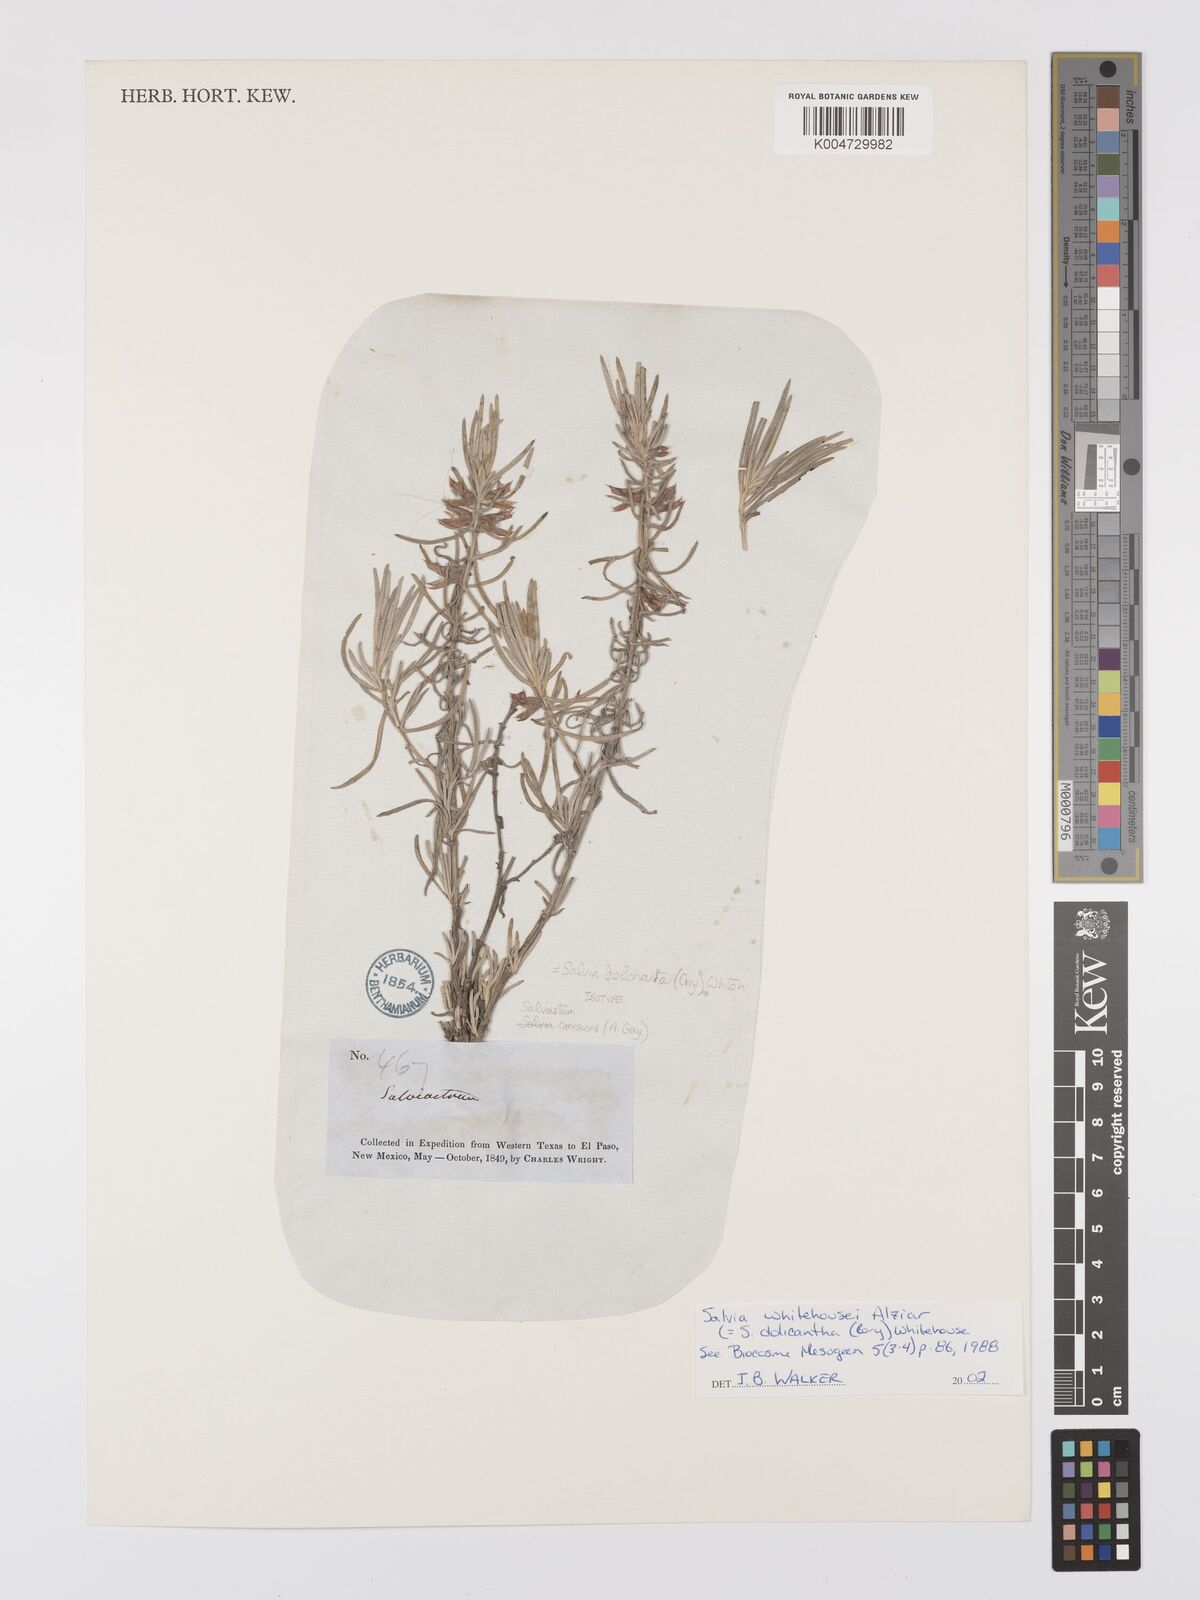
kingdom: Plantae
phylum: Tracheophyta
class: Magnoliopsida
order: Lamiales
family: Lamiaceae
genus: Salvia
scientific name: Salvia
